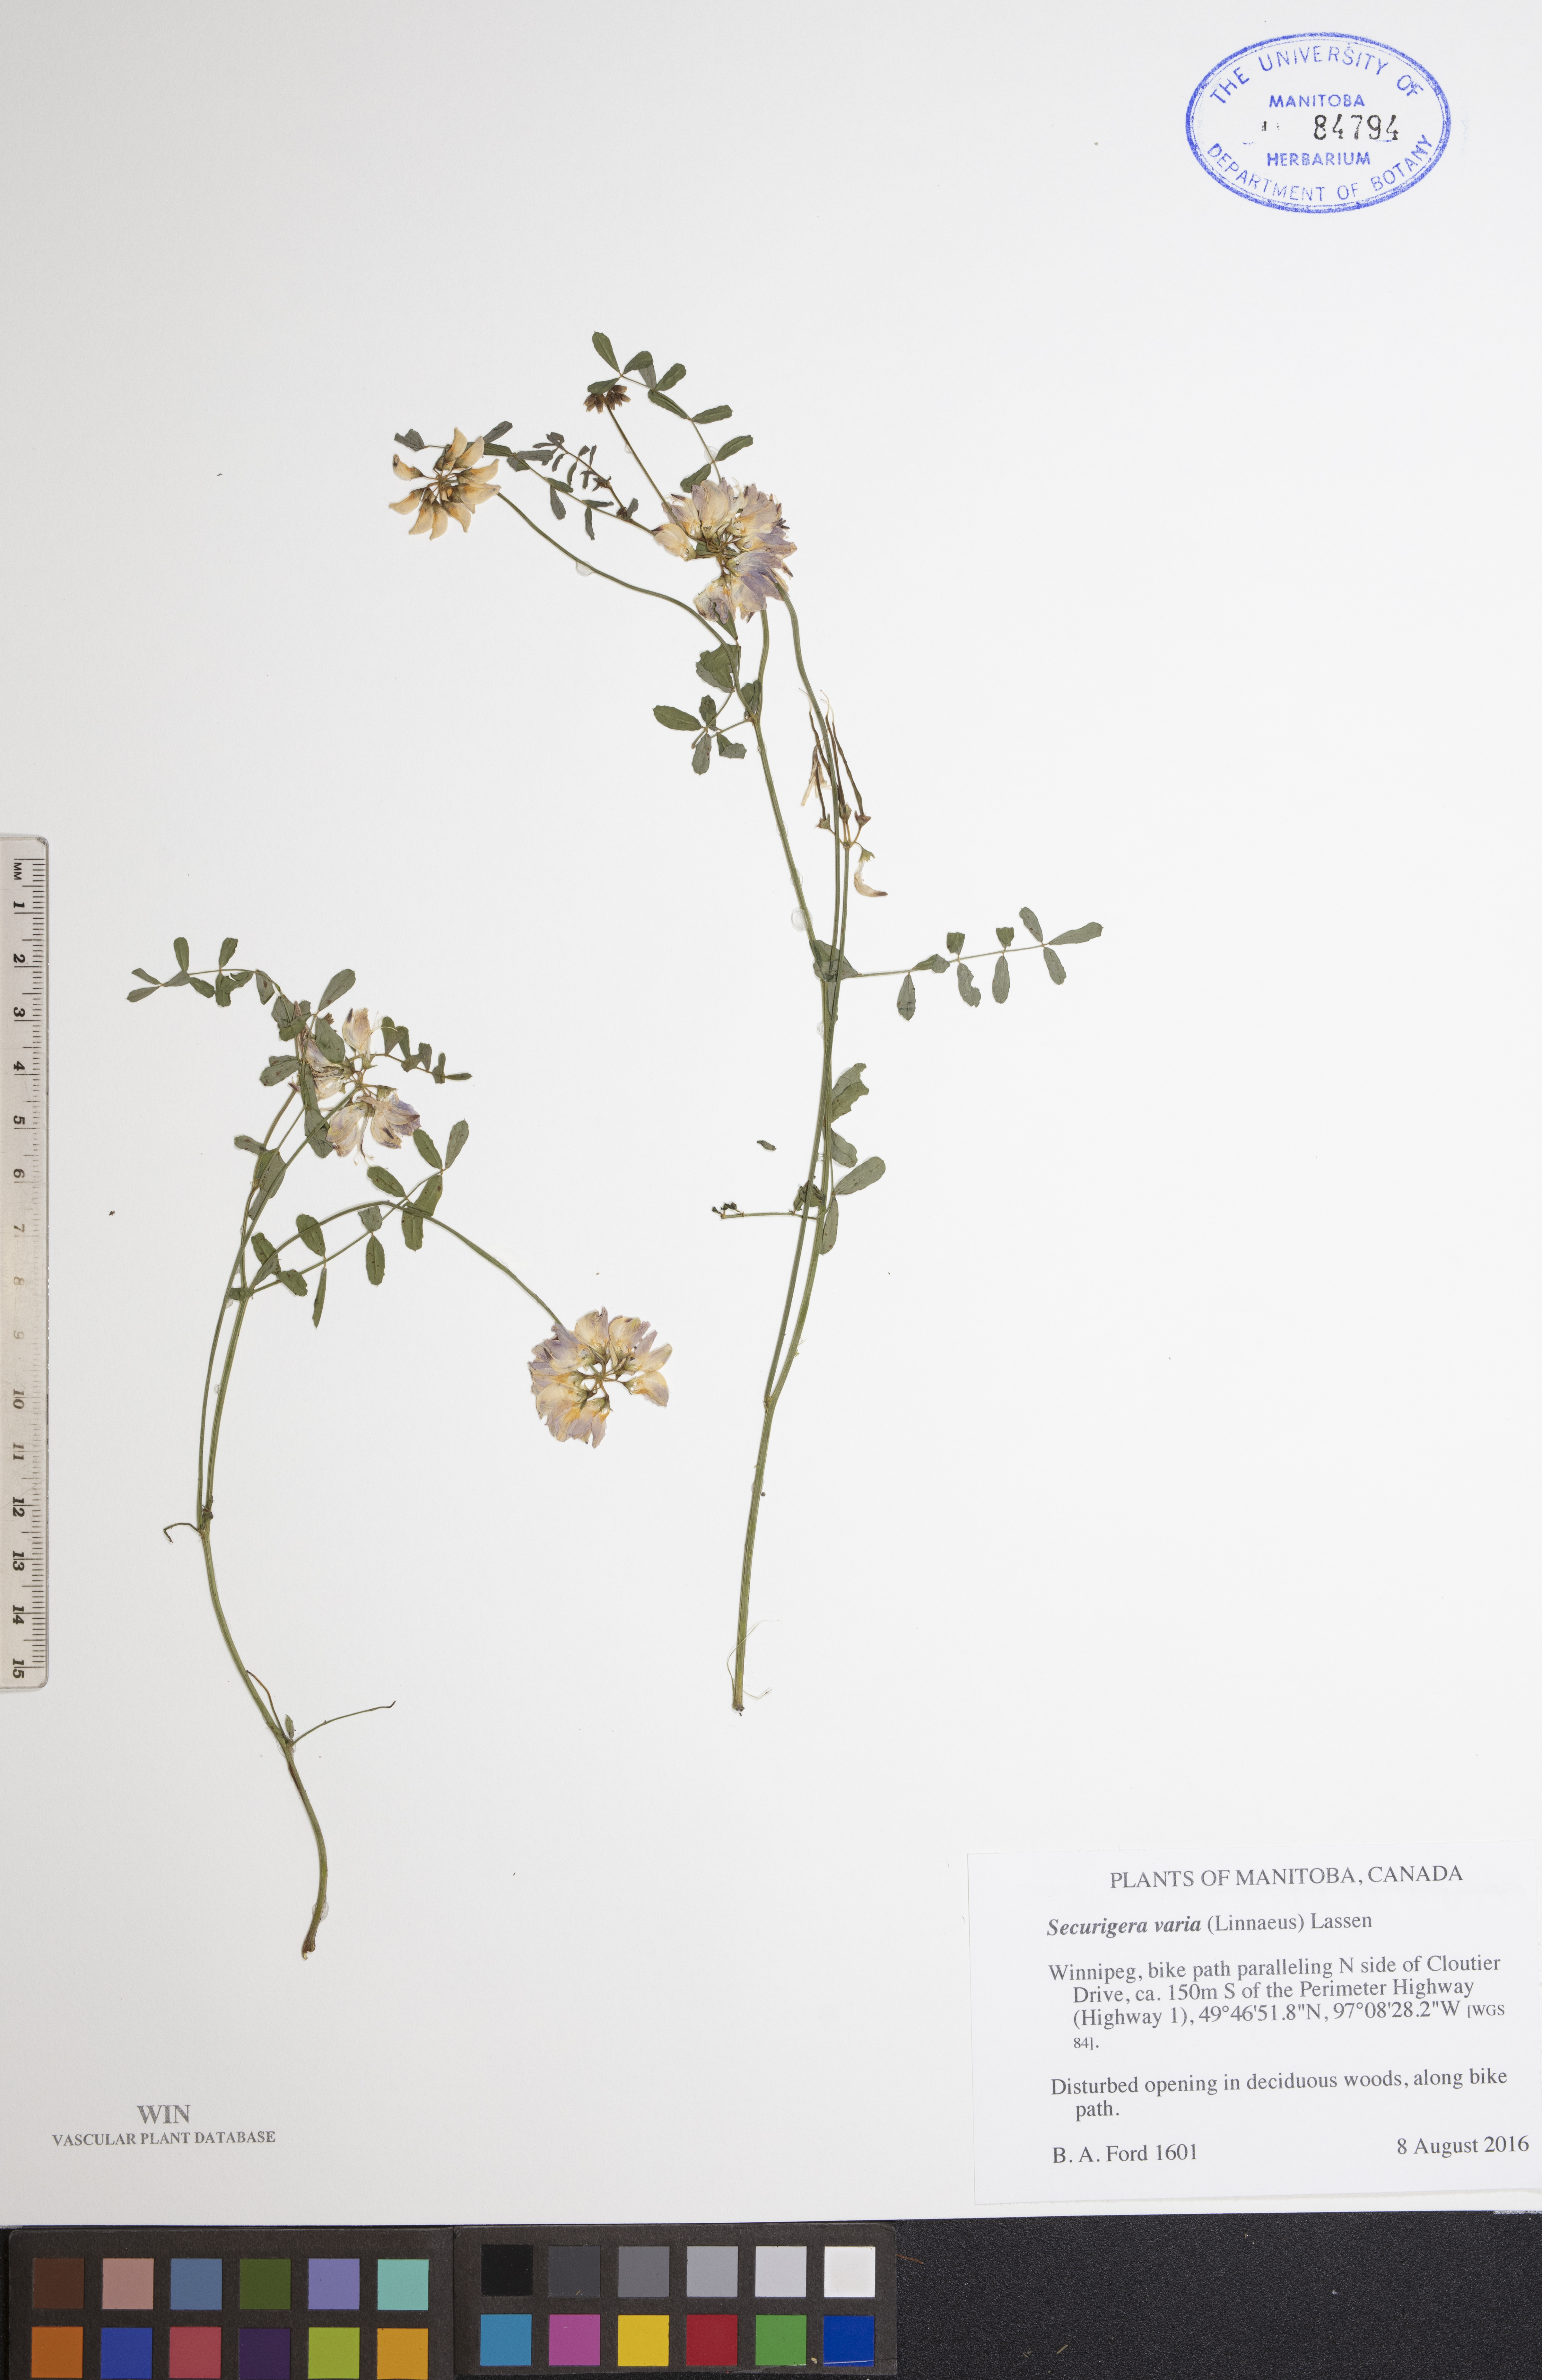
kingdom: Plantae
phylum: Tracheophyta
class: Magnoliopsida
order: Fabales
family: Fabaceae
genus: Coronilla
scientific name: Coronilla varia
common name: Crownvetch
